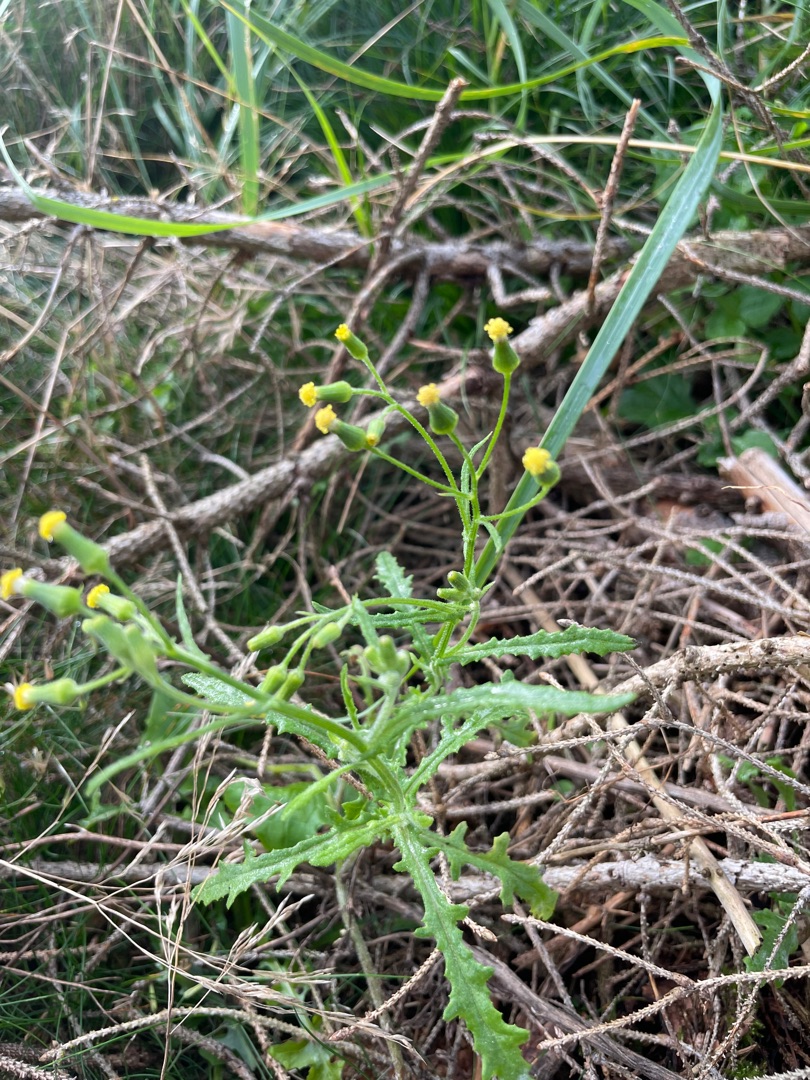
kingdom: Plantae
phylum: Tracheophyta
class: Magnoliopsida
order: Asterales
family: Asteraceae
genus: Senecio
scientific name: Senecio sylvaticus
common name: Skov-brandbæger
